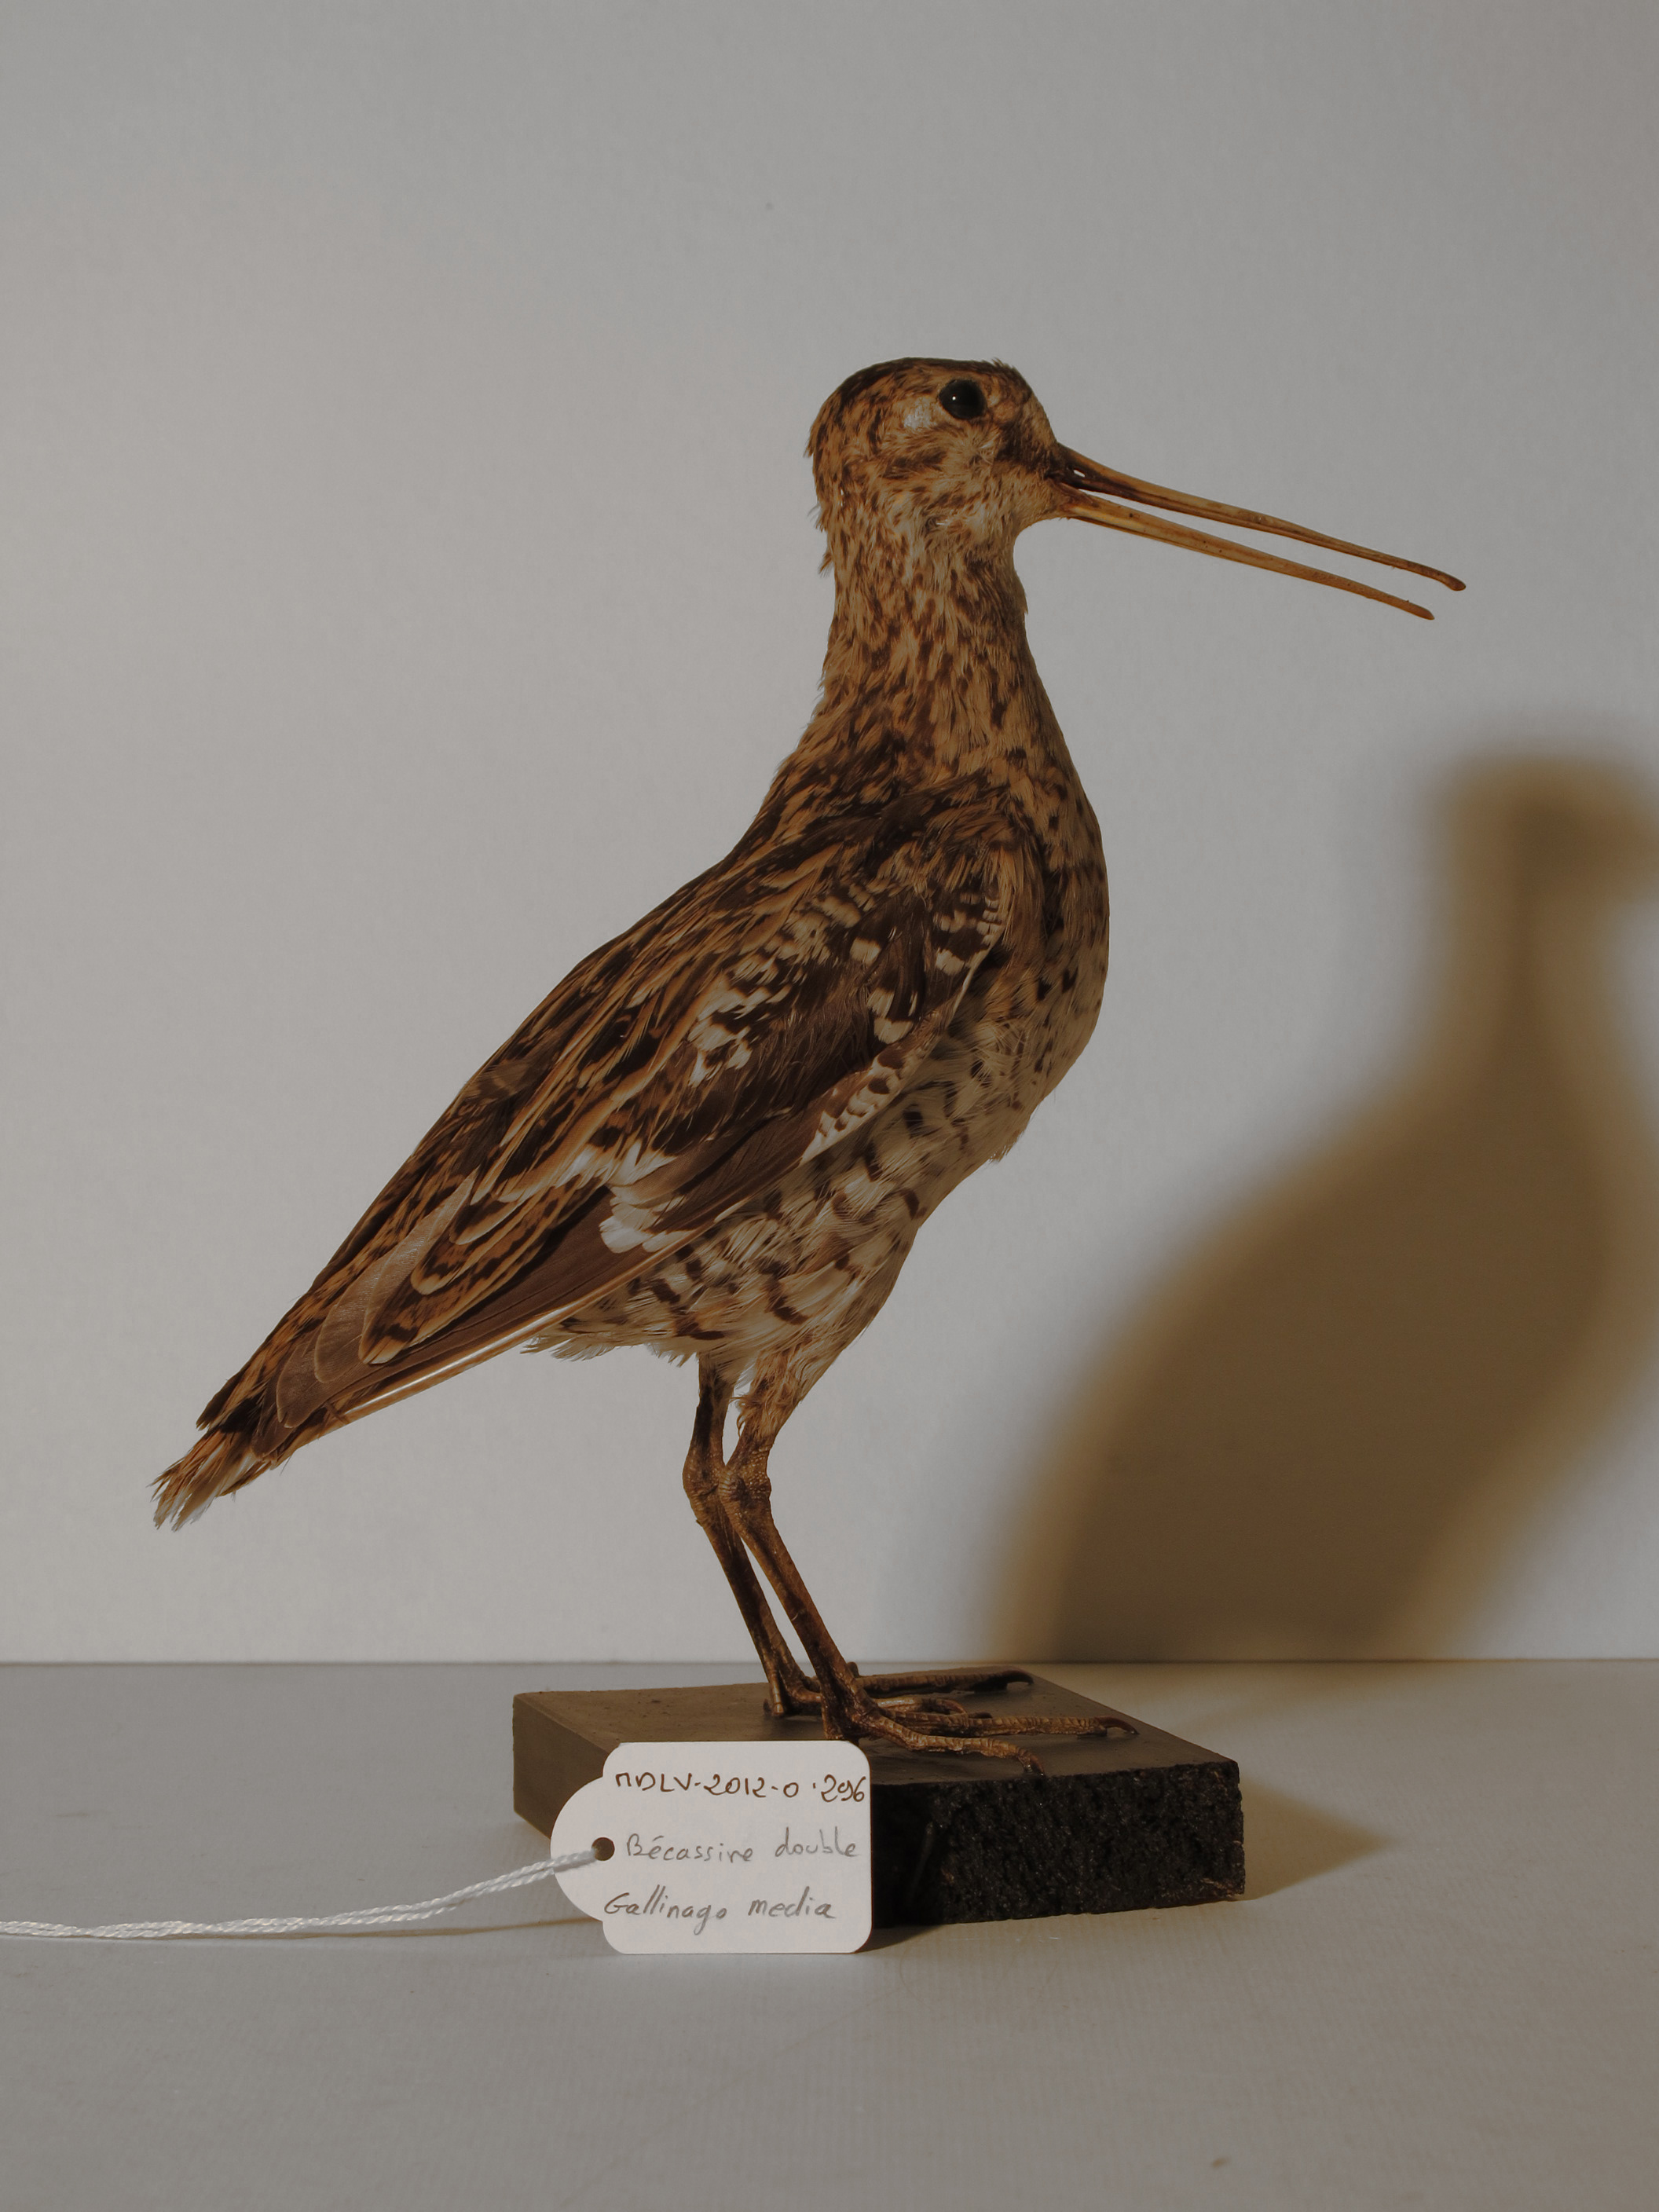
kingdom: Animalia
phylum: Chordata
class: Aves
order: Charadriiformes
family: Scolopacidae
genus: Gallinago
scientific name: Gallinago media
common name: Great Snipe
